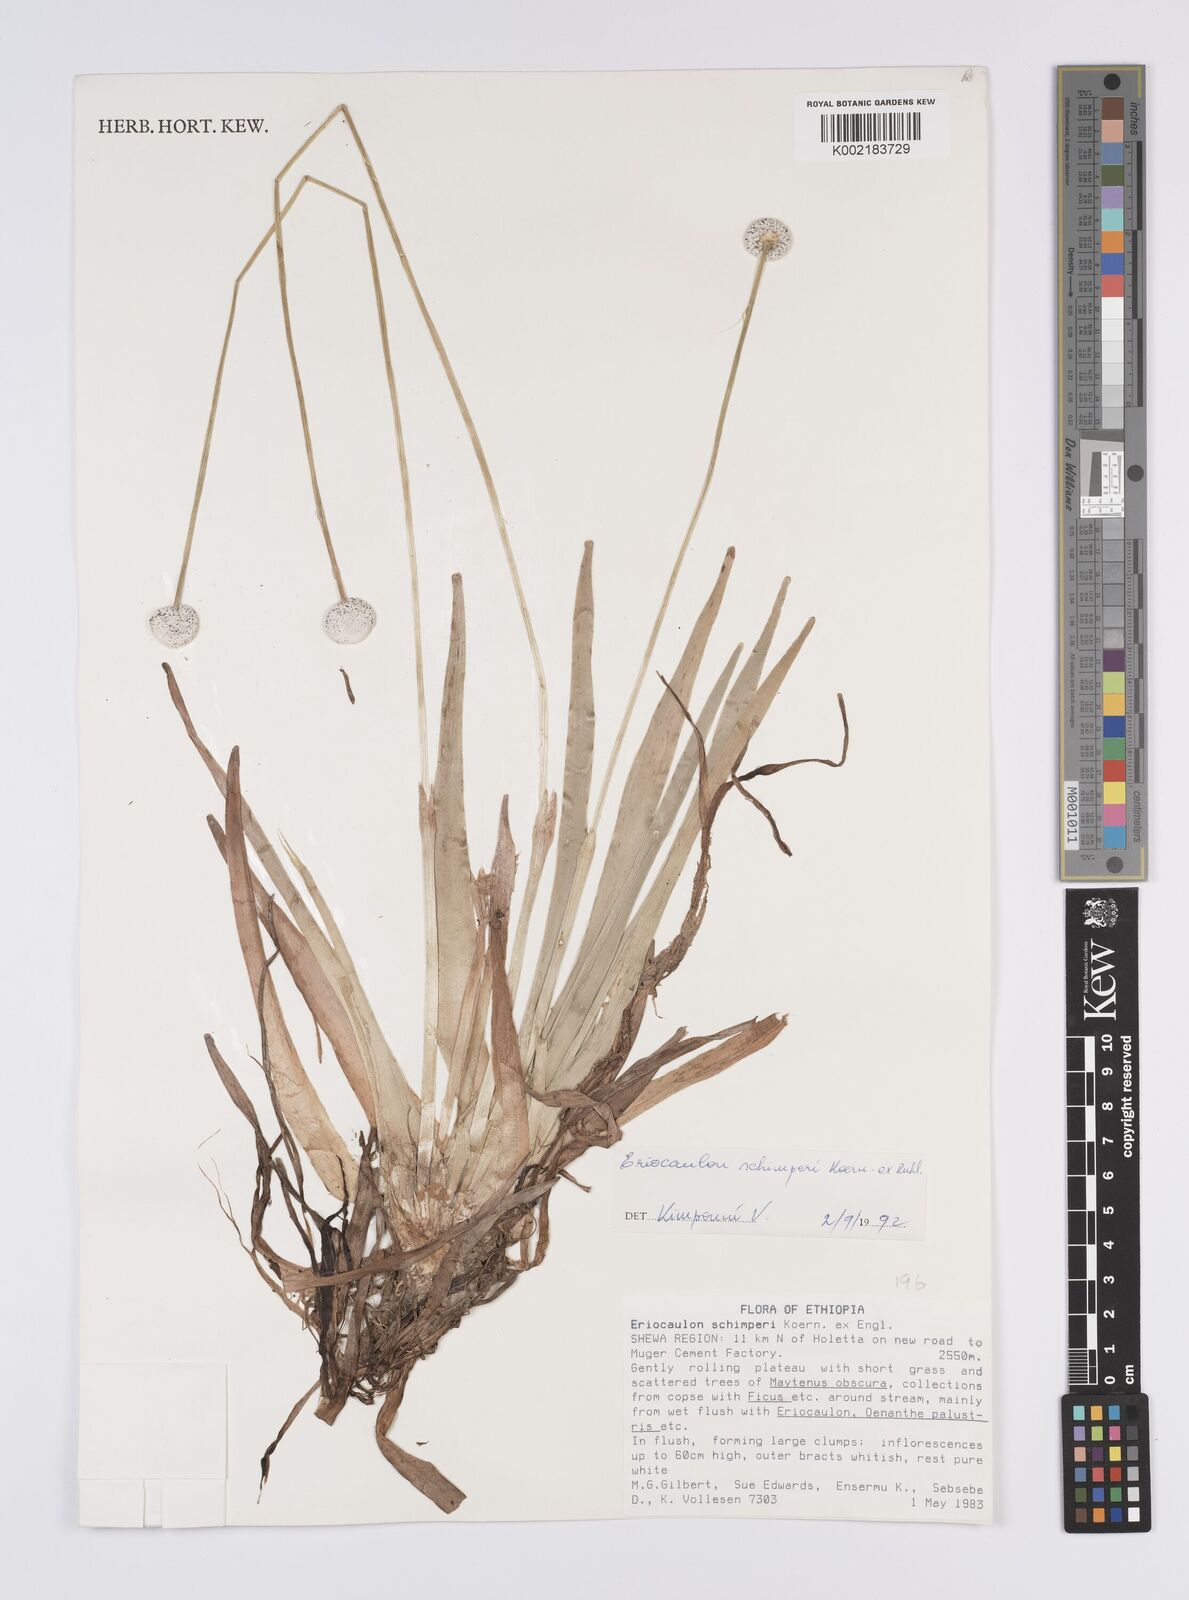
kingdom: Plantae
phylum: Tracheophyta
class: Liliopsida
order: Poales
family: Eriocaulaceae
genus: Eriocaulon
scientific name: Eriocaulon schimperi
